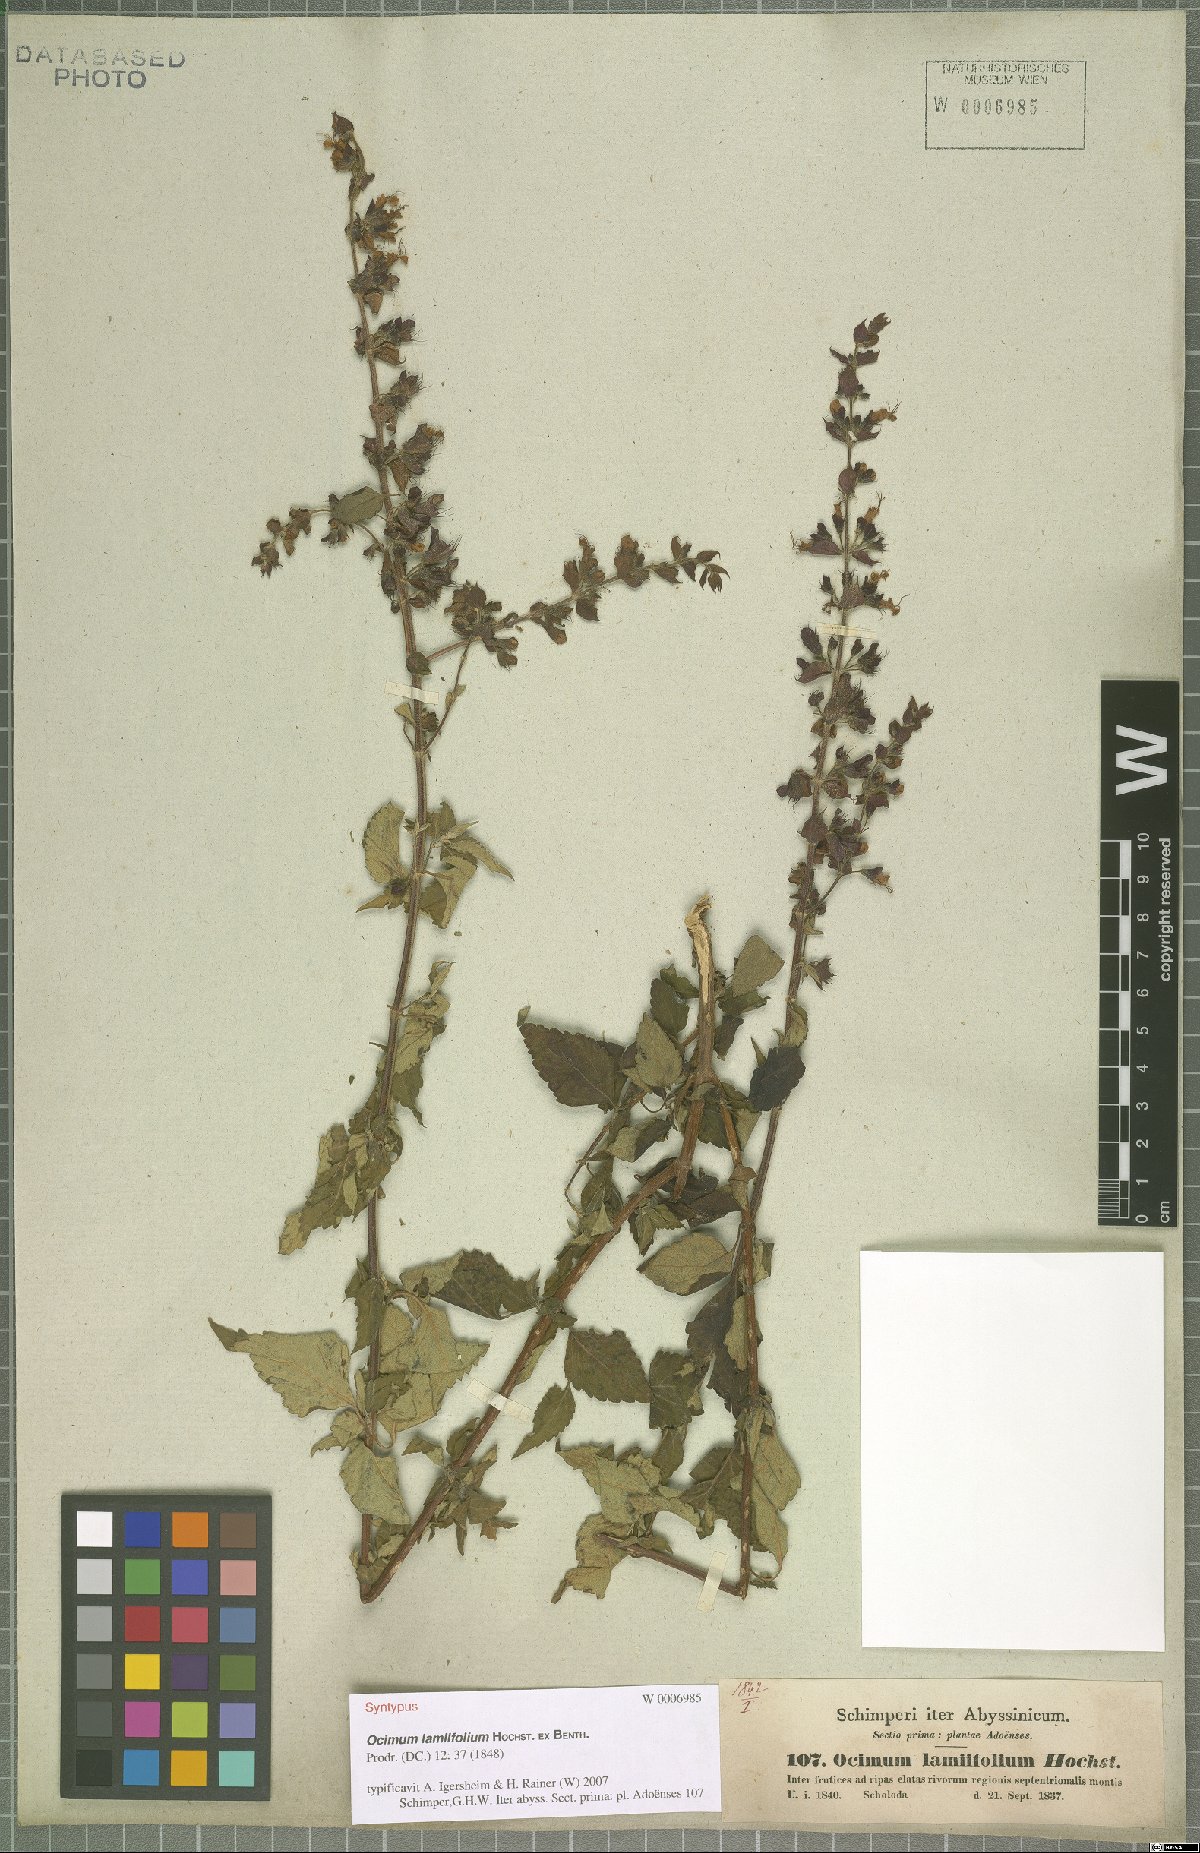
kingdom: Plantae
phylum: Tracheophyta
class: Magnoliopsida
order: Lamiales
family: Lamiaceae
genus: Ocimum
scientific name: Ocimum lamiifolium
